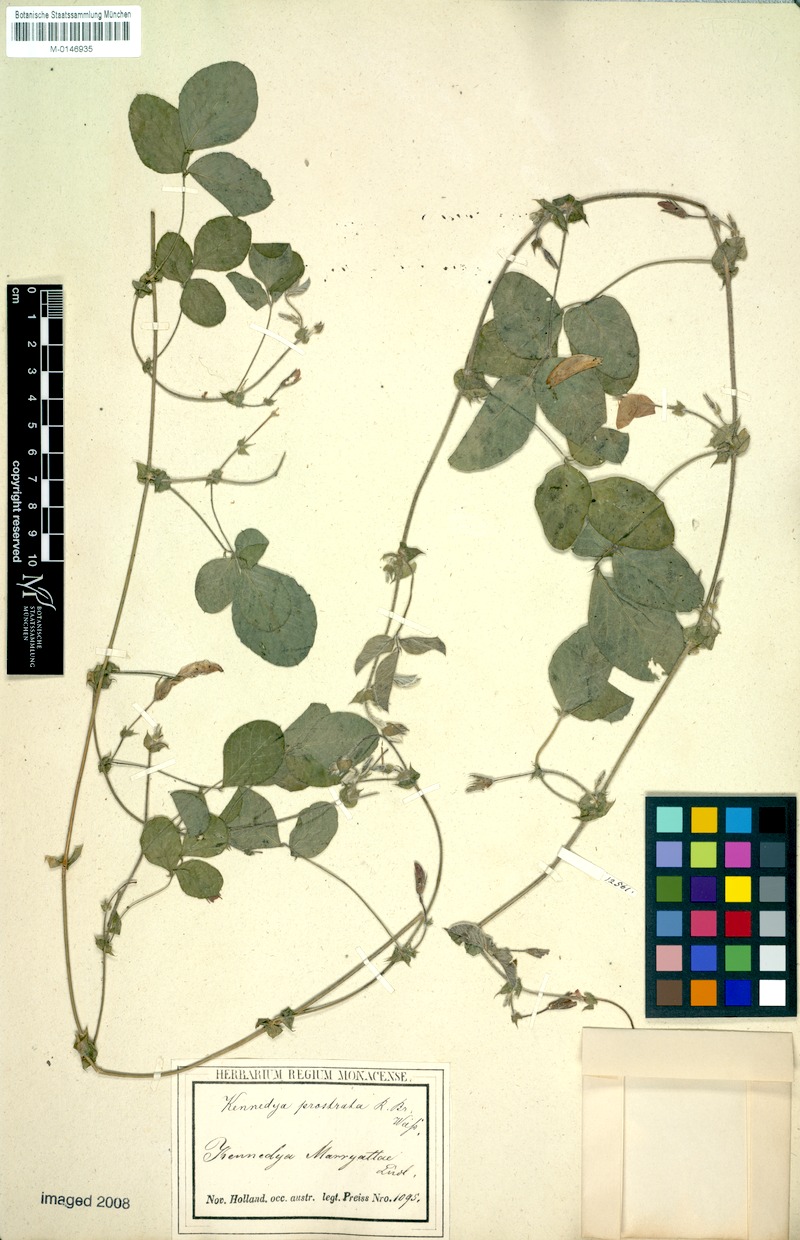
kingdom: Plantae
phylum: Tracheophyta
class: Magnoliopsida
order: Fabales
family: Fabaceae
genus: Kennedia
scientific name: Kennedia prostrata
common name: Running-postman
